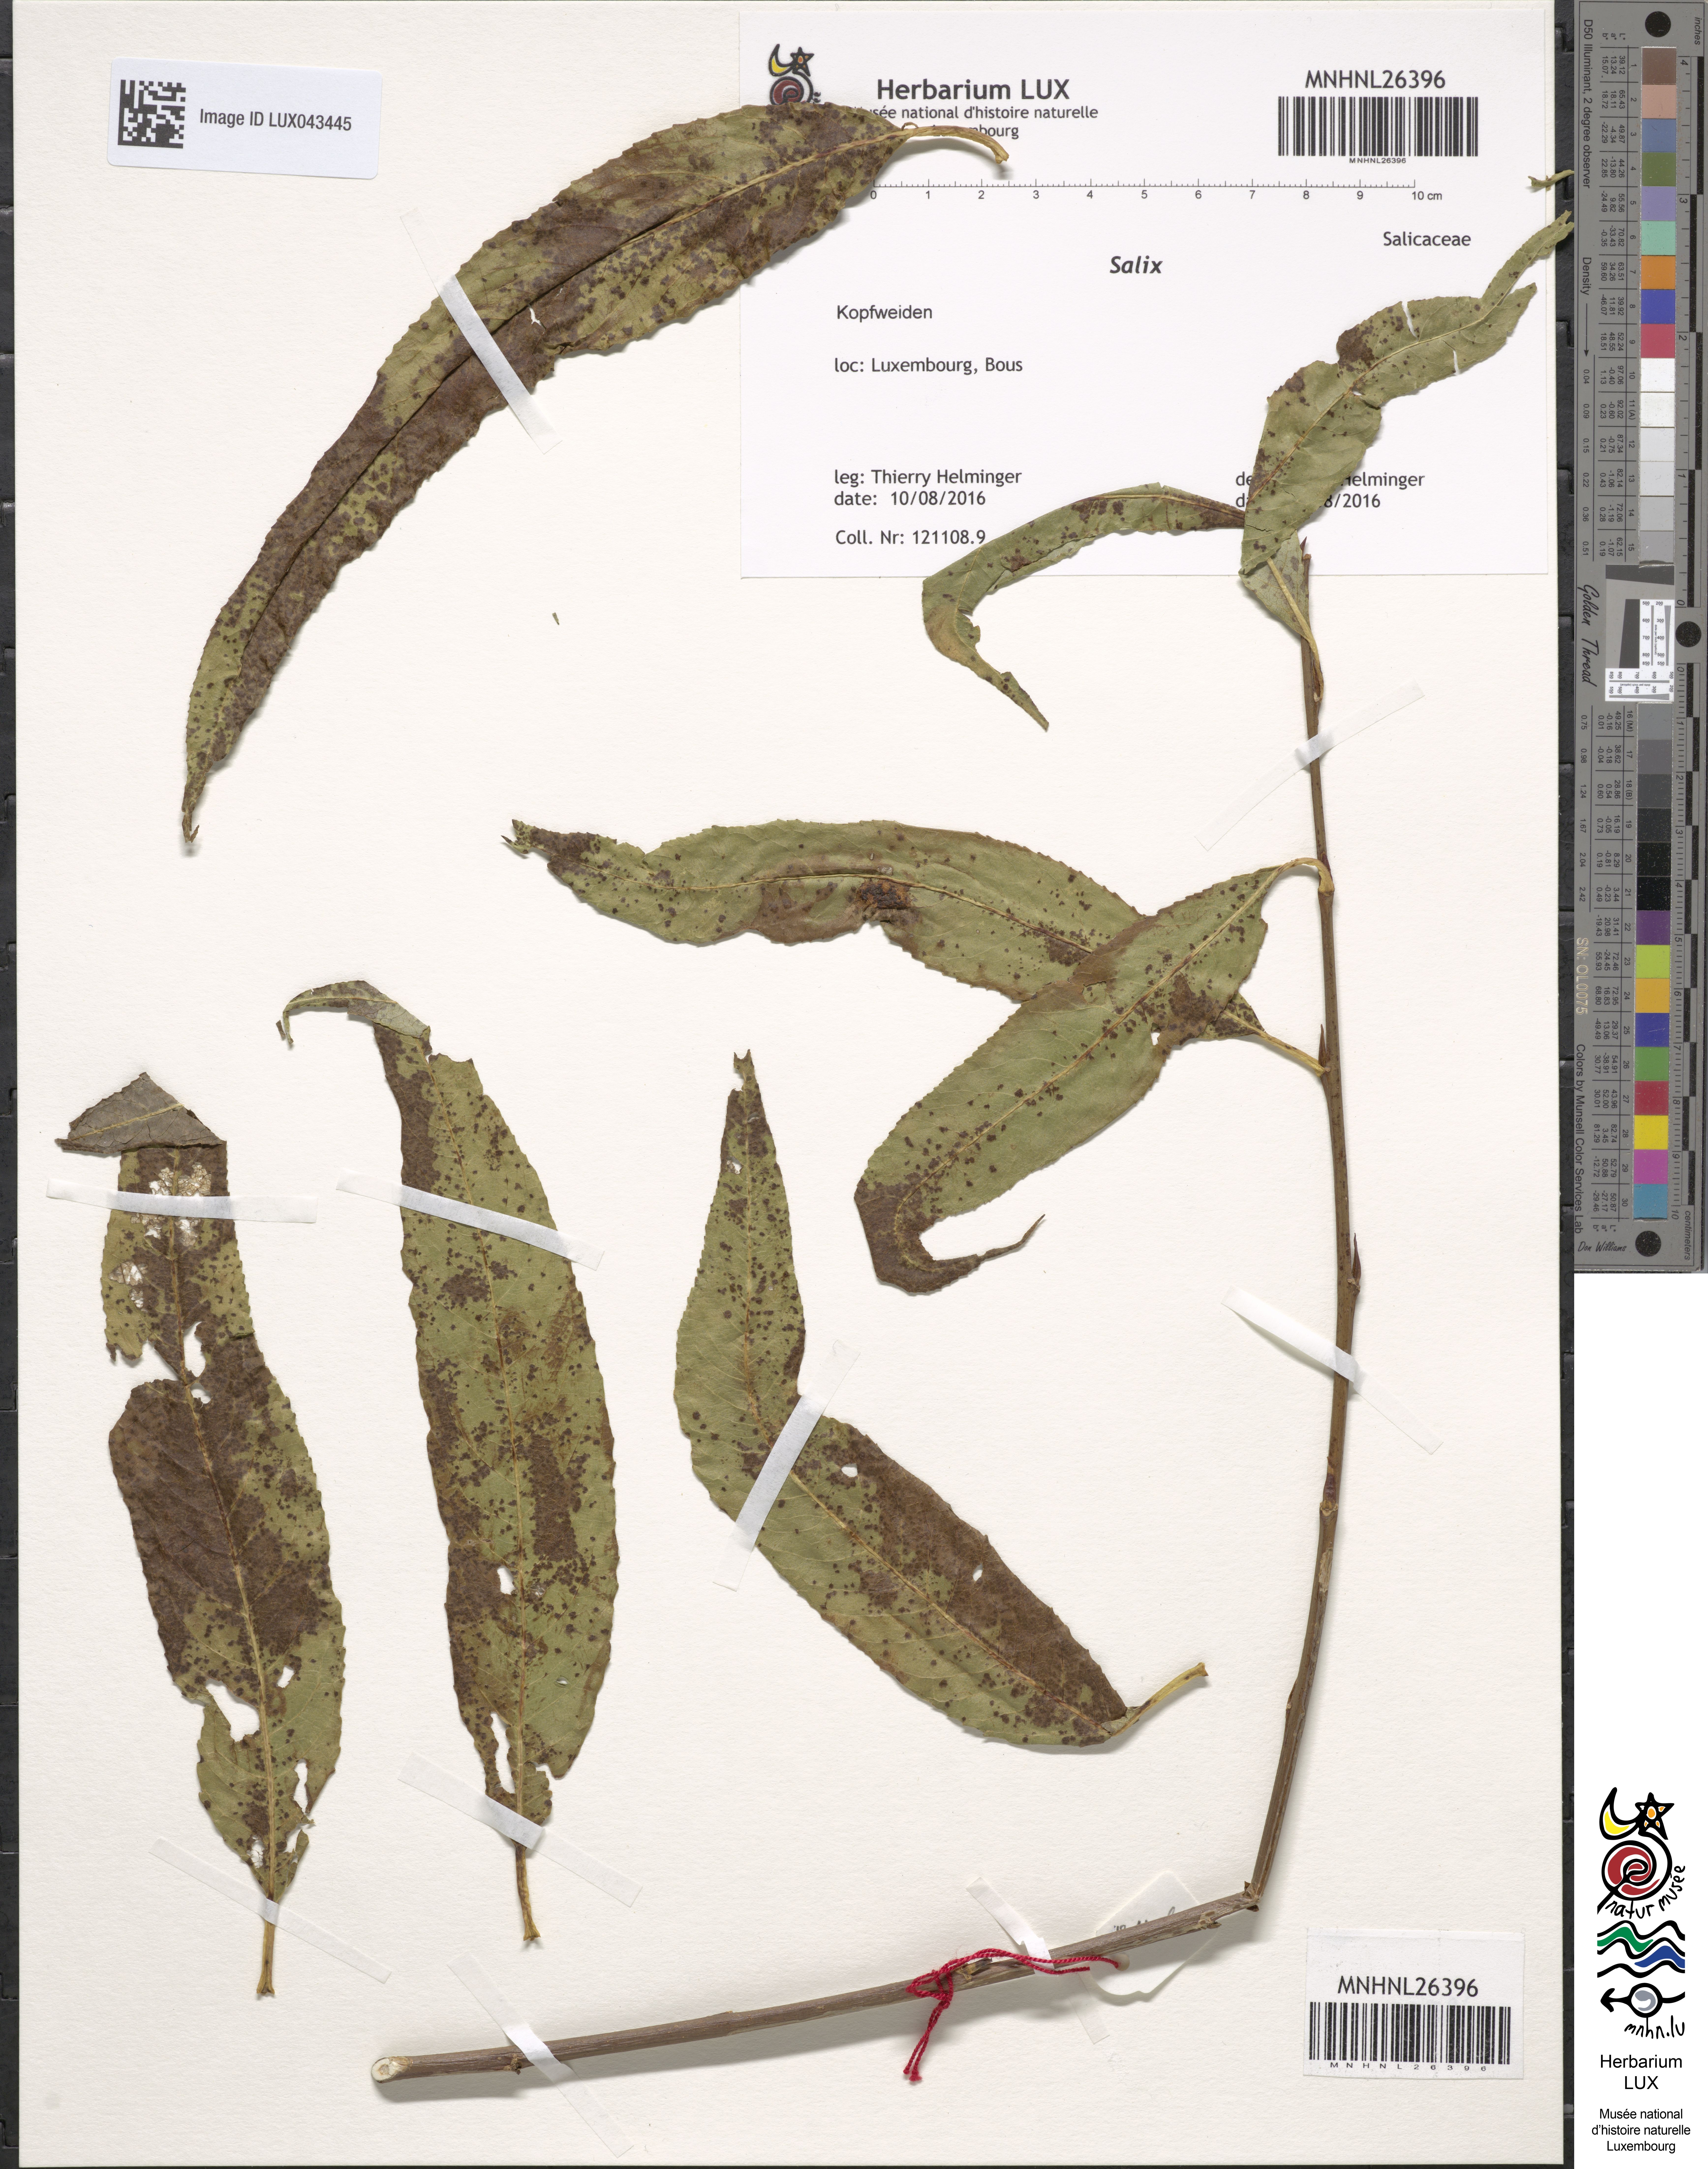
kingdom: Plantae
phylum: Tracheophyta
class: Magnoliopsida
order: Malpighiales
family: Salicaceae
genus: Salix
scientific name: Salix
